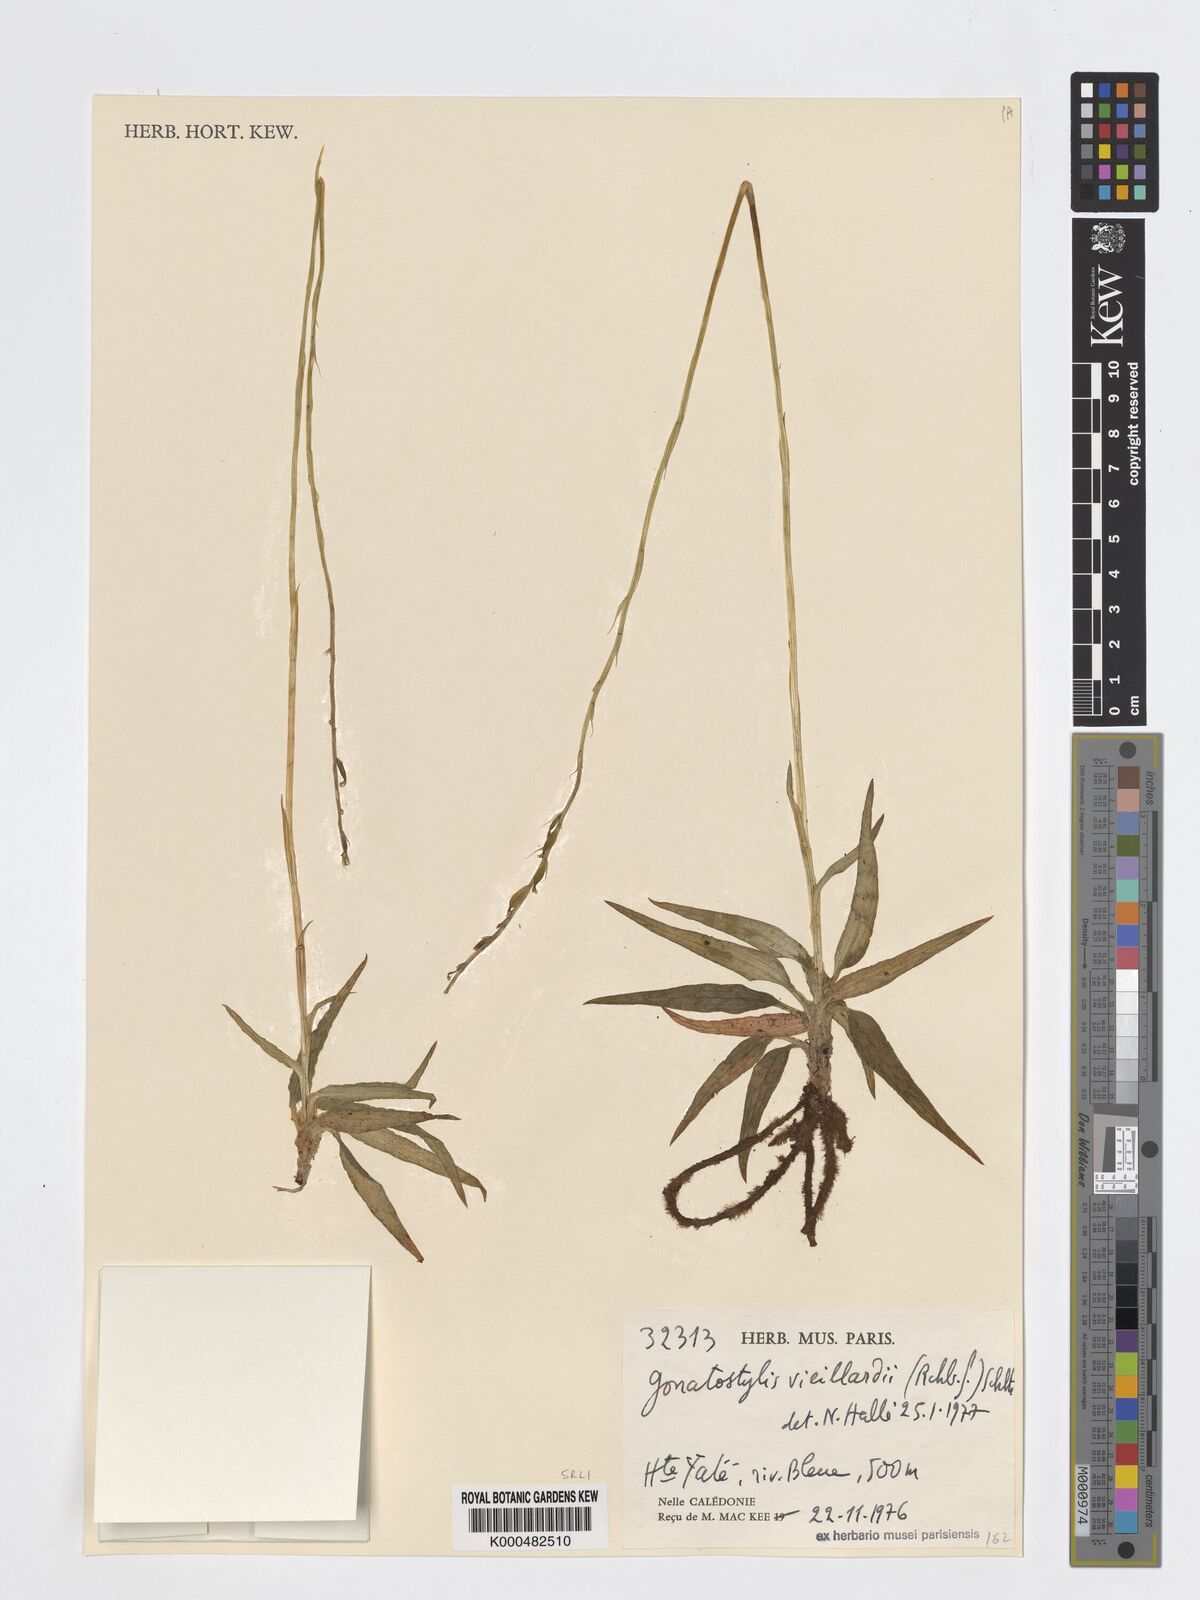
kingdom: Plantae
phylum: Tracheophyta
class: Liliopsida
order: Asparagales
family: Orchidaceae
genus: Gonatostylis
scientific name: Gonatostylis vieillardii
